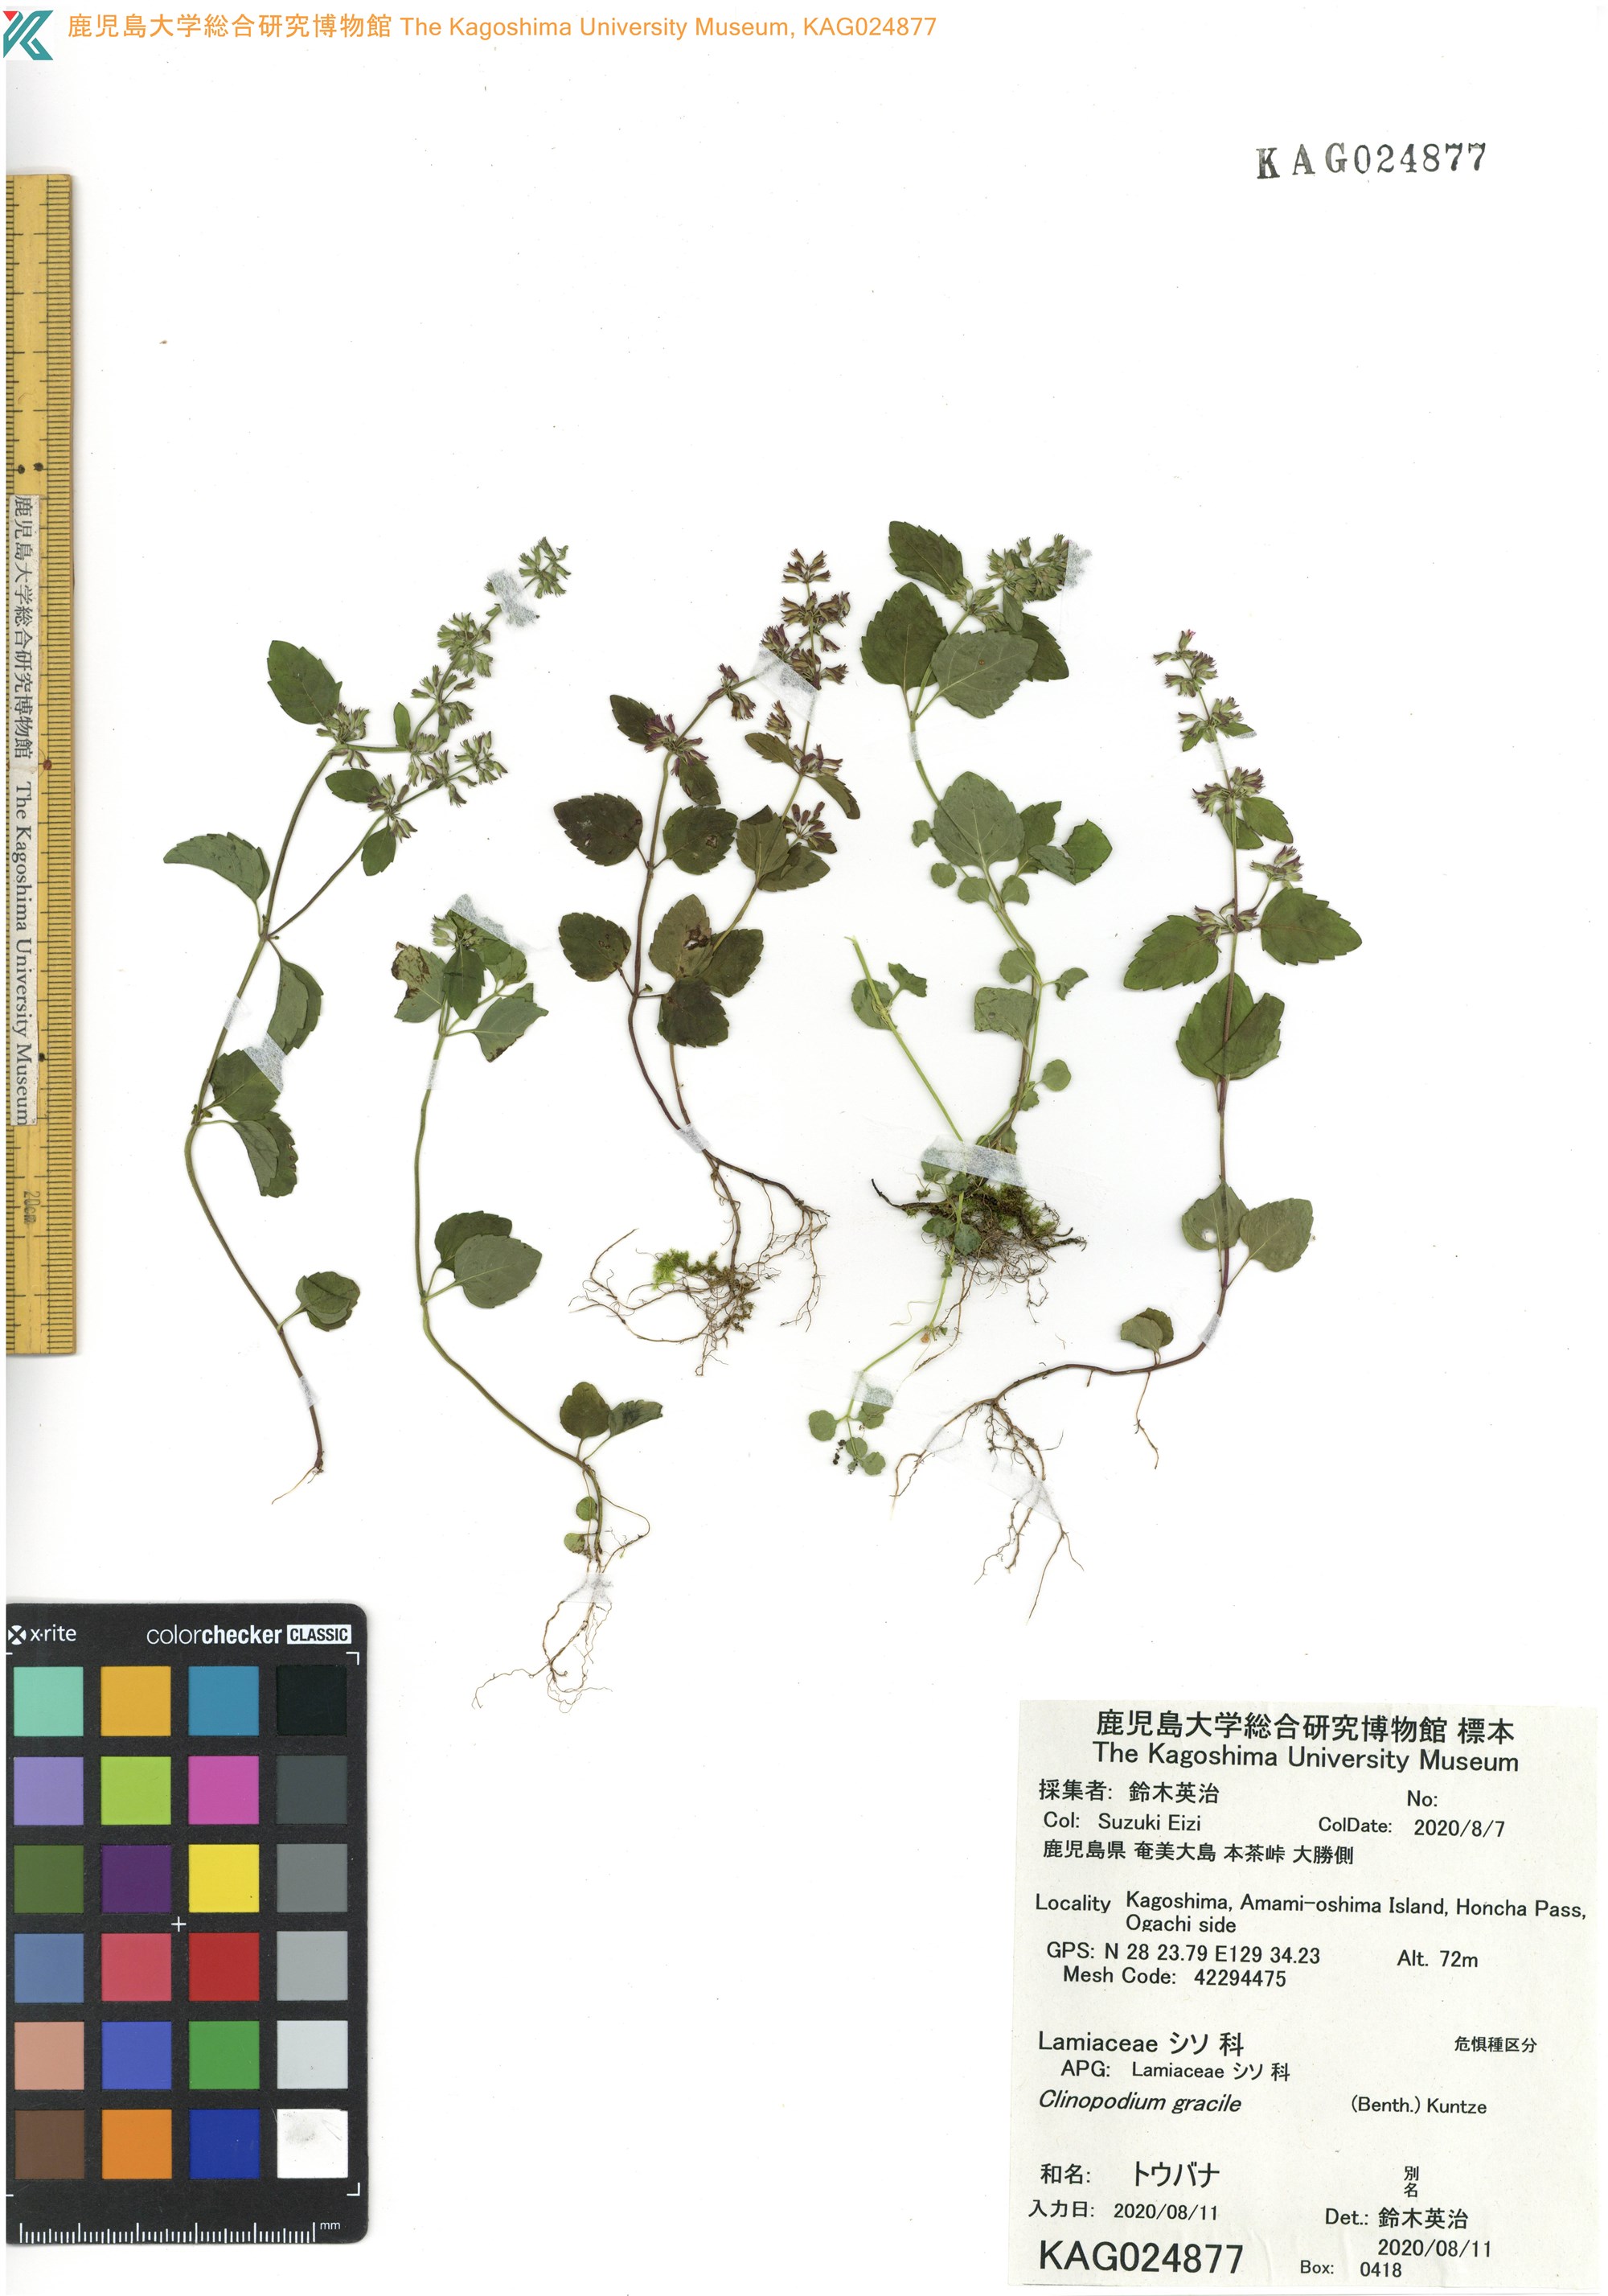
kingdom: Plantae
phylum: Tracheophyta
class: Magnoliopsida
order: Lamiales
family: Lamiaceae
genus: Clinopodium
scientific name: Clinopodium gracile
